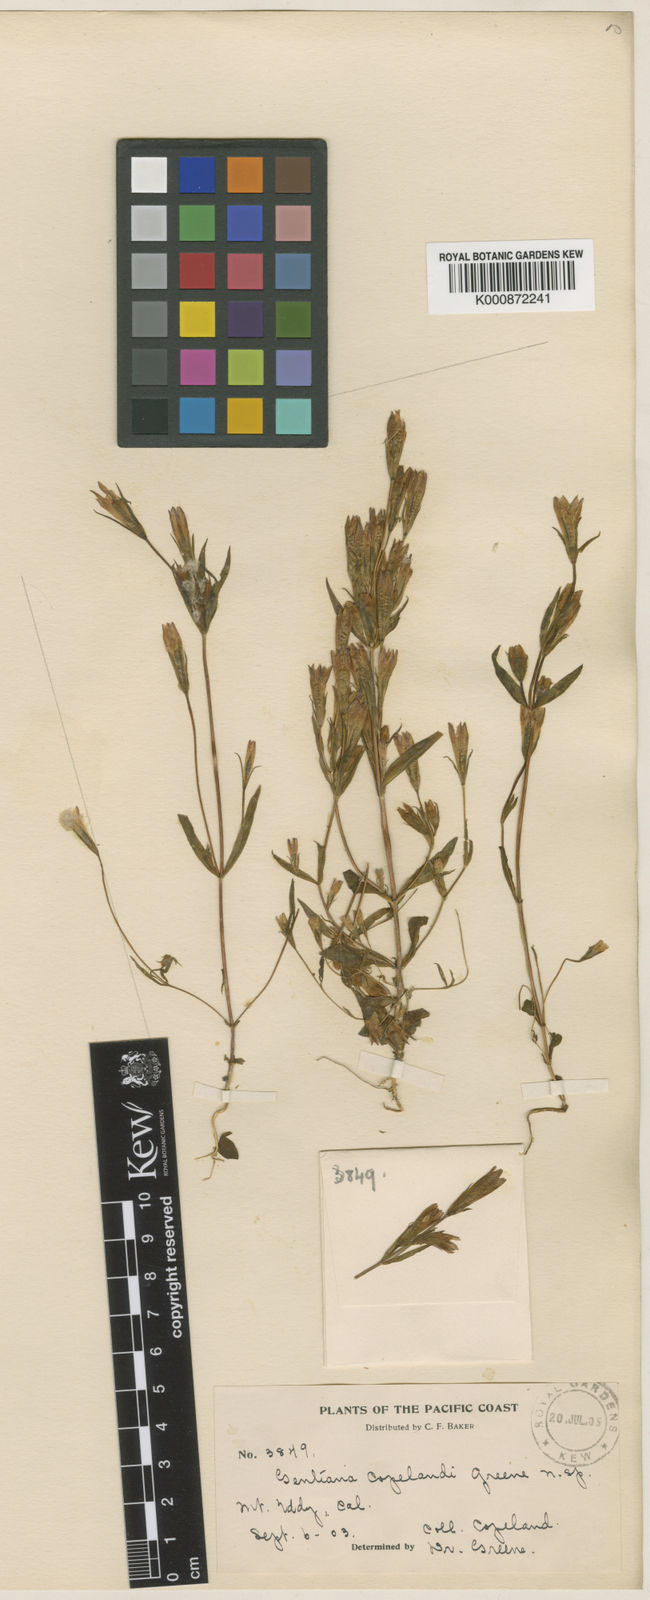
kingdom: Plantae
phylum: Tracheophyta
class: Magnoliopsida
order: Gentianales
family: Gentianaceae
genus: Gentianella
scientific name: Gentianella
